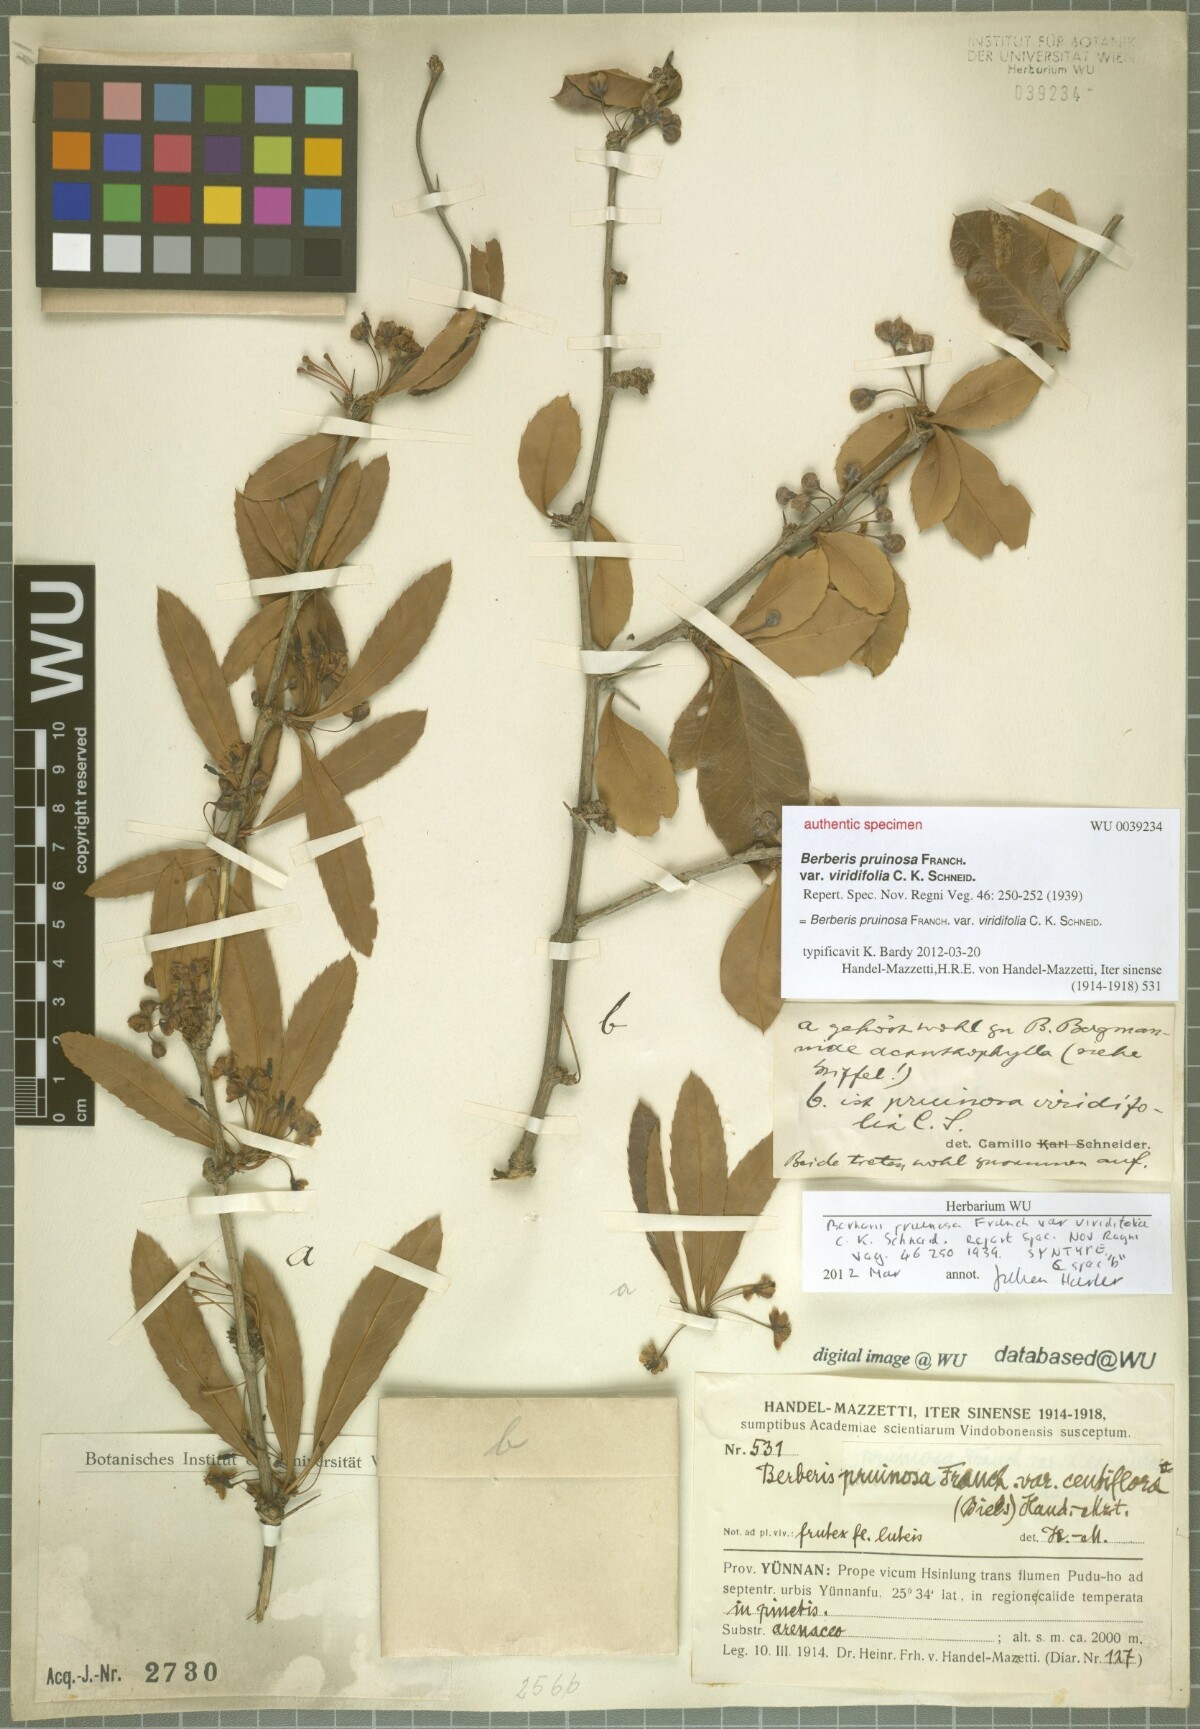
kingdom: Plantae
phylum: Tracheophyta
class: Magnoliopsida
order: Ranunculales
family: Berberidaceae
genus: Berberis
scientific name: Berberis pruinosa
